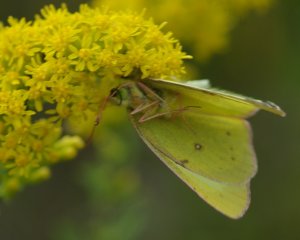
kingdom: Animalia
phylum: Arthropoda
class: Insecta
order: Lepidoptera
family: Pieridae
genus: Colias
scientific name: Colias philodice
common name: Clouded Sulphur
